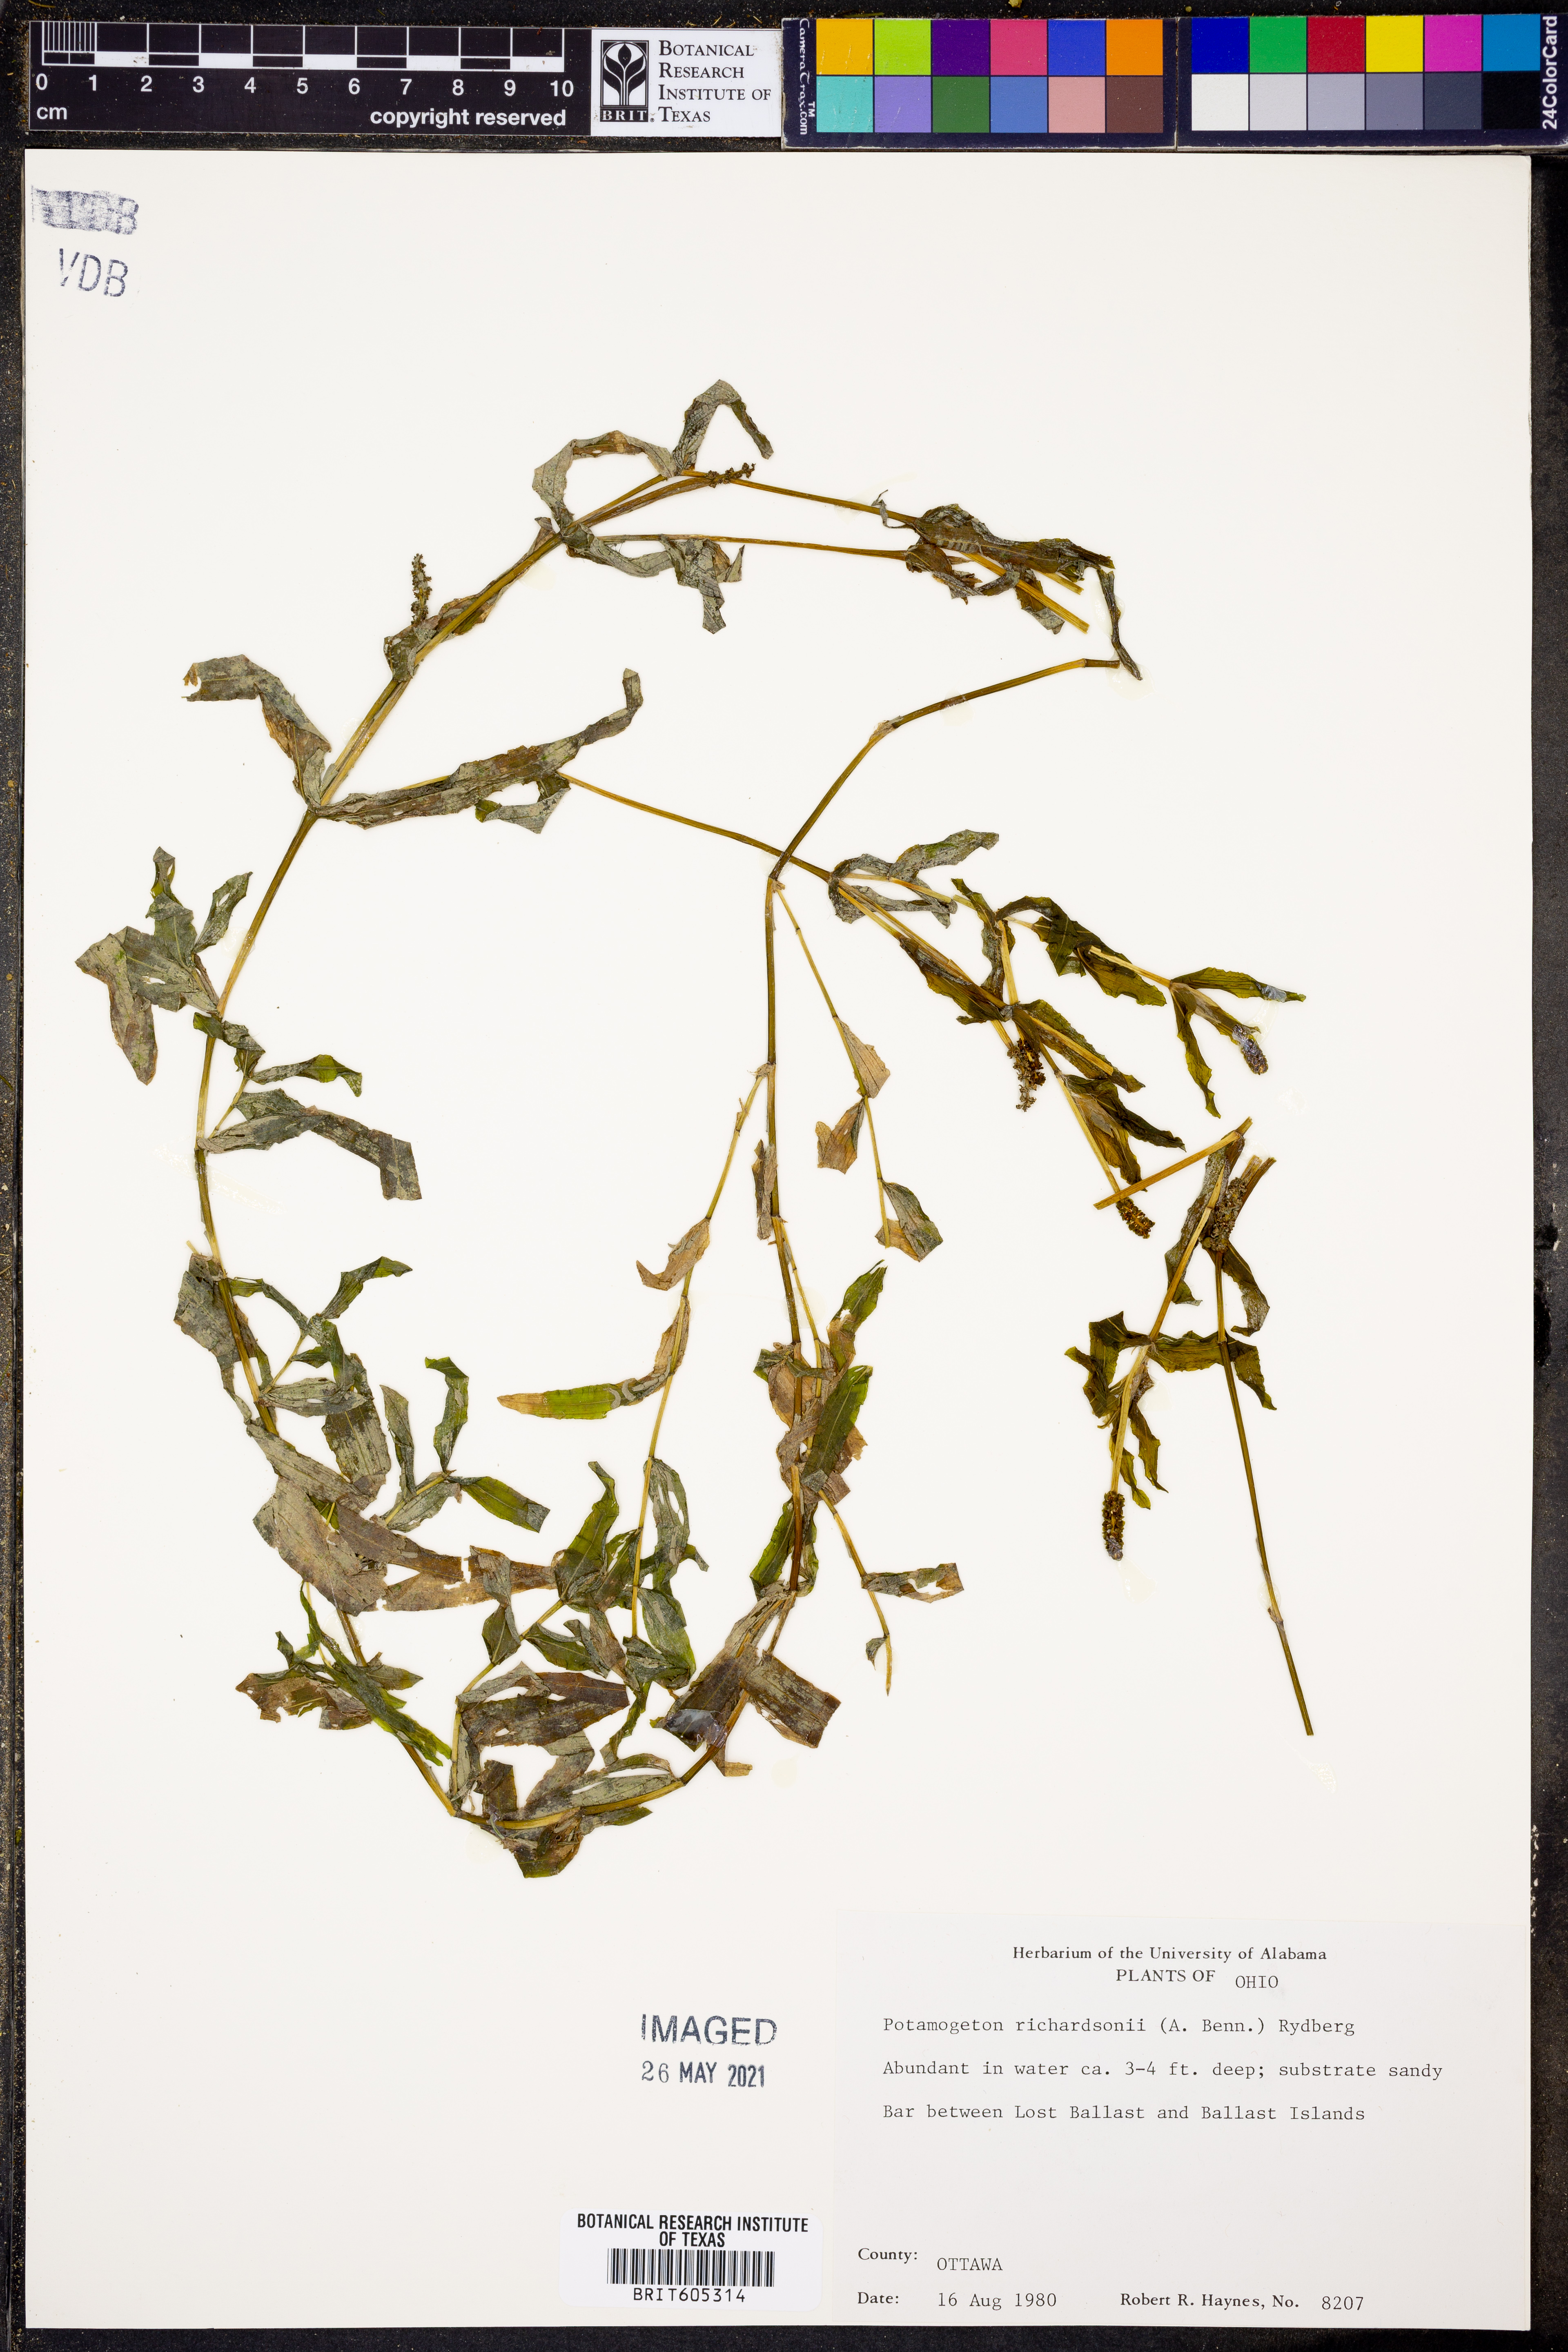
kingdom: Plantae
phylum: Tracheophyta
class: Liliopsida
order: Alismatales
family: Potamogetonaceae
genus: Potamogeton
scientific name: Potamogeton richardsonii
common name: Richardson's pondweed
